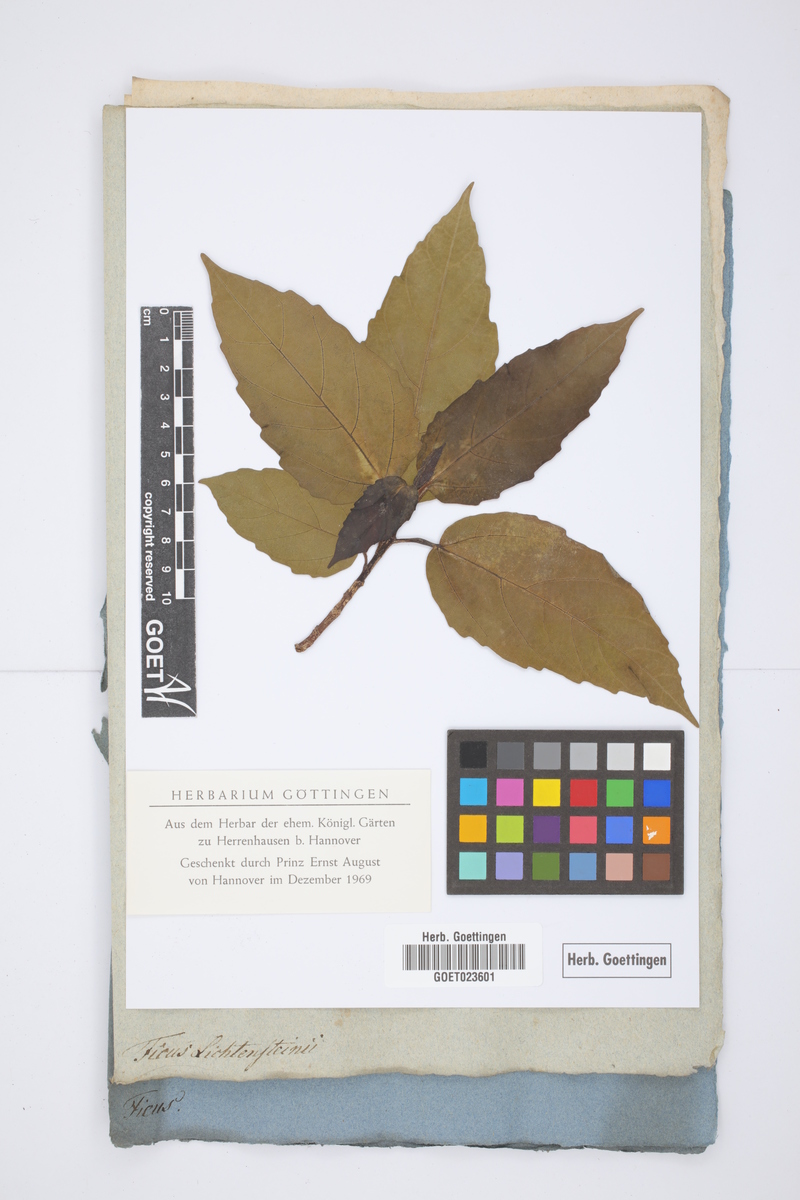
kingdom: Plantae
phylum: Tracheophyta
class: Magnoliopsida
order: Rosales
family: Moraceae
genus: Ficus
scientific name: Ficus sur
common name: Cape fig
